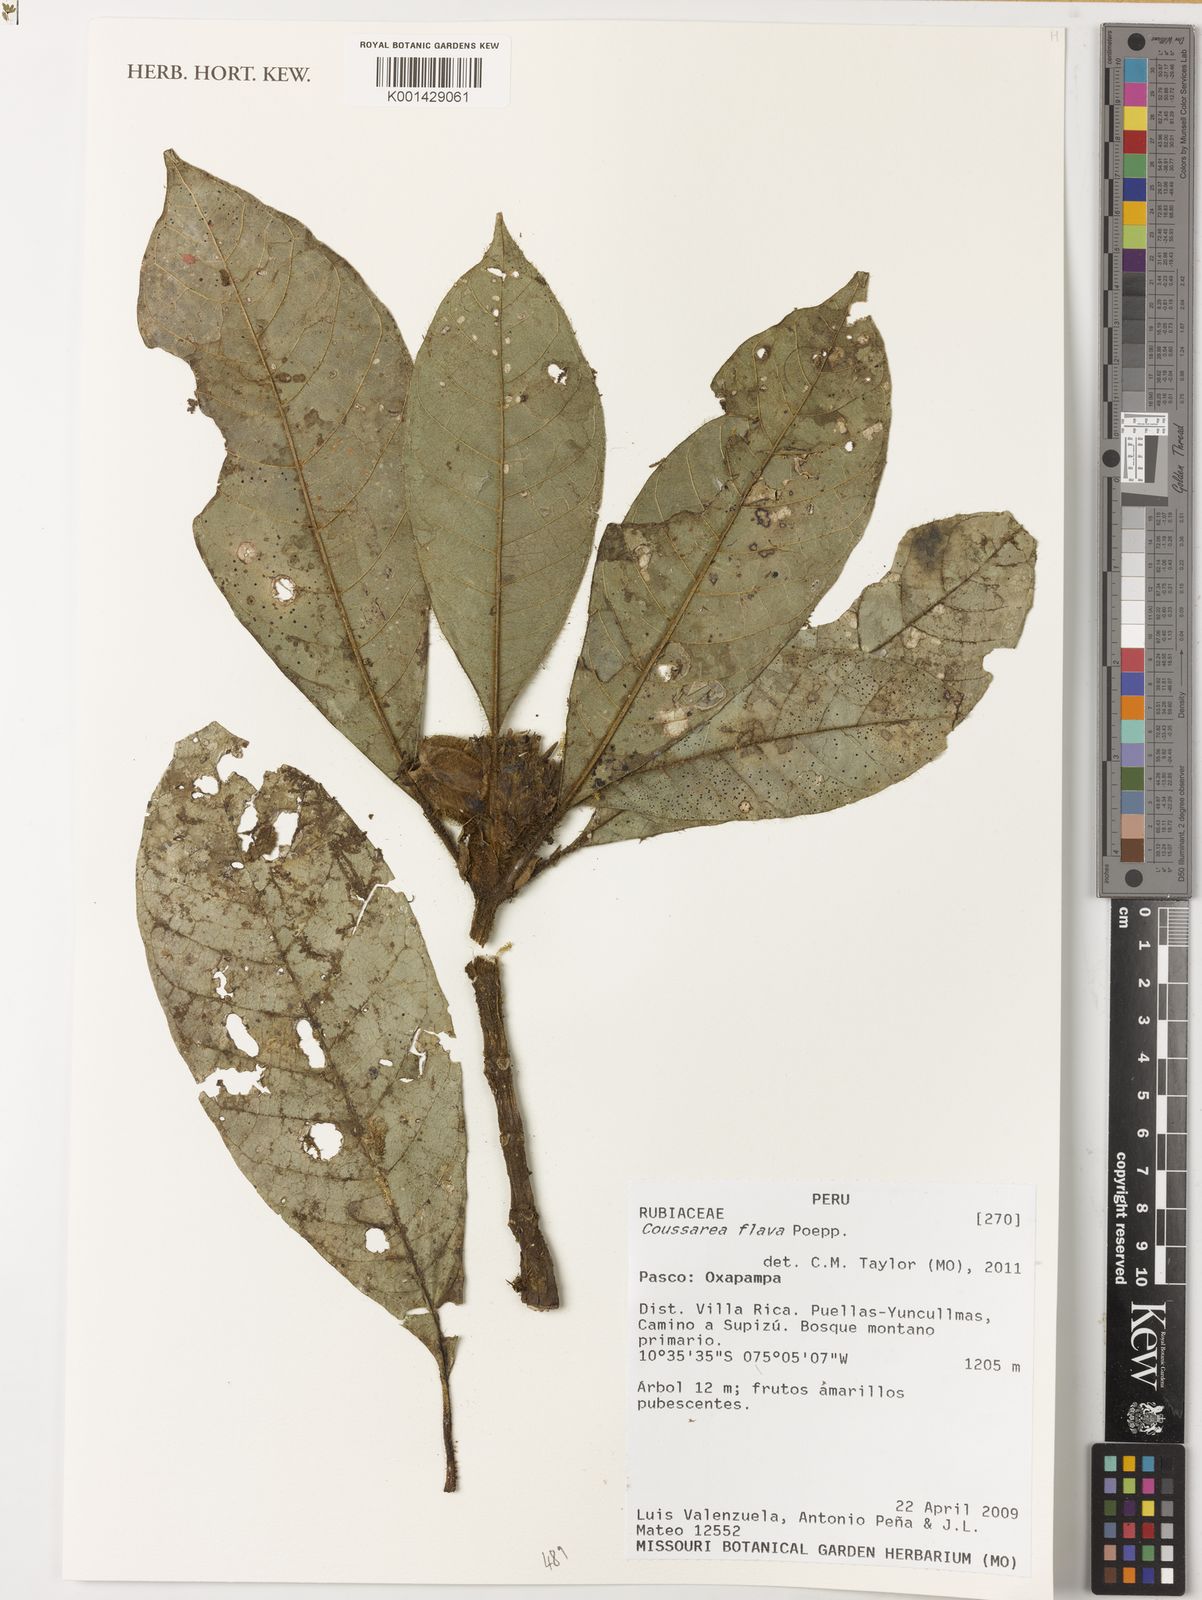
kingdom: Plantae
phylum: Tracheophyta
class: Magnoliopsida
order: Gentianales
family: Rubiaceae
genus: Coussarea
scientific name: Coussarea flava
